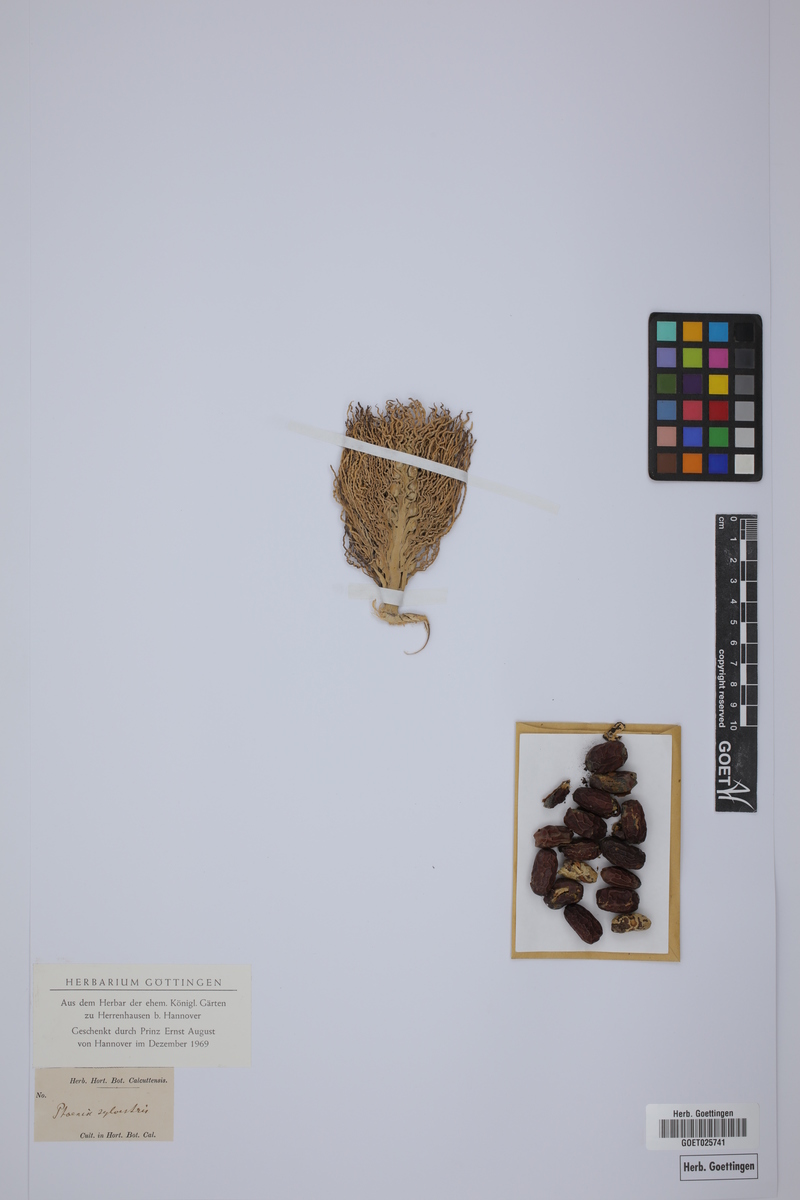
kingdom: Plantae
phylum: Tracheophyta
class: Liliopsida
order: Arecales
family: Arecaceae
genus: Phoenix
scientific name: Phoenix sylvestris
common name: Wild date palm
